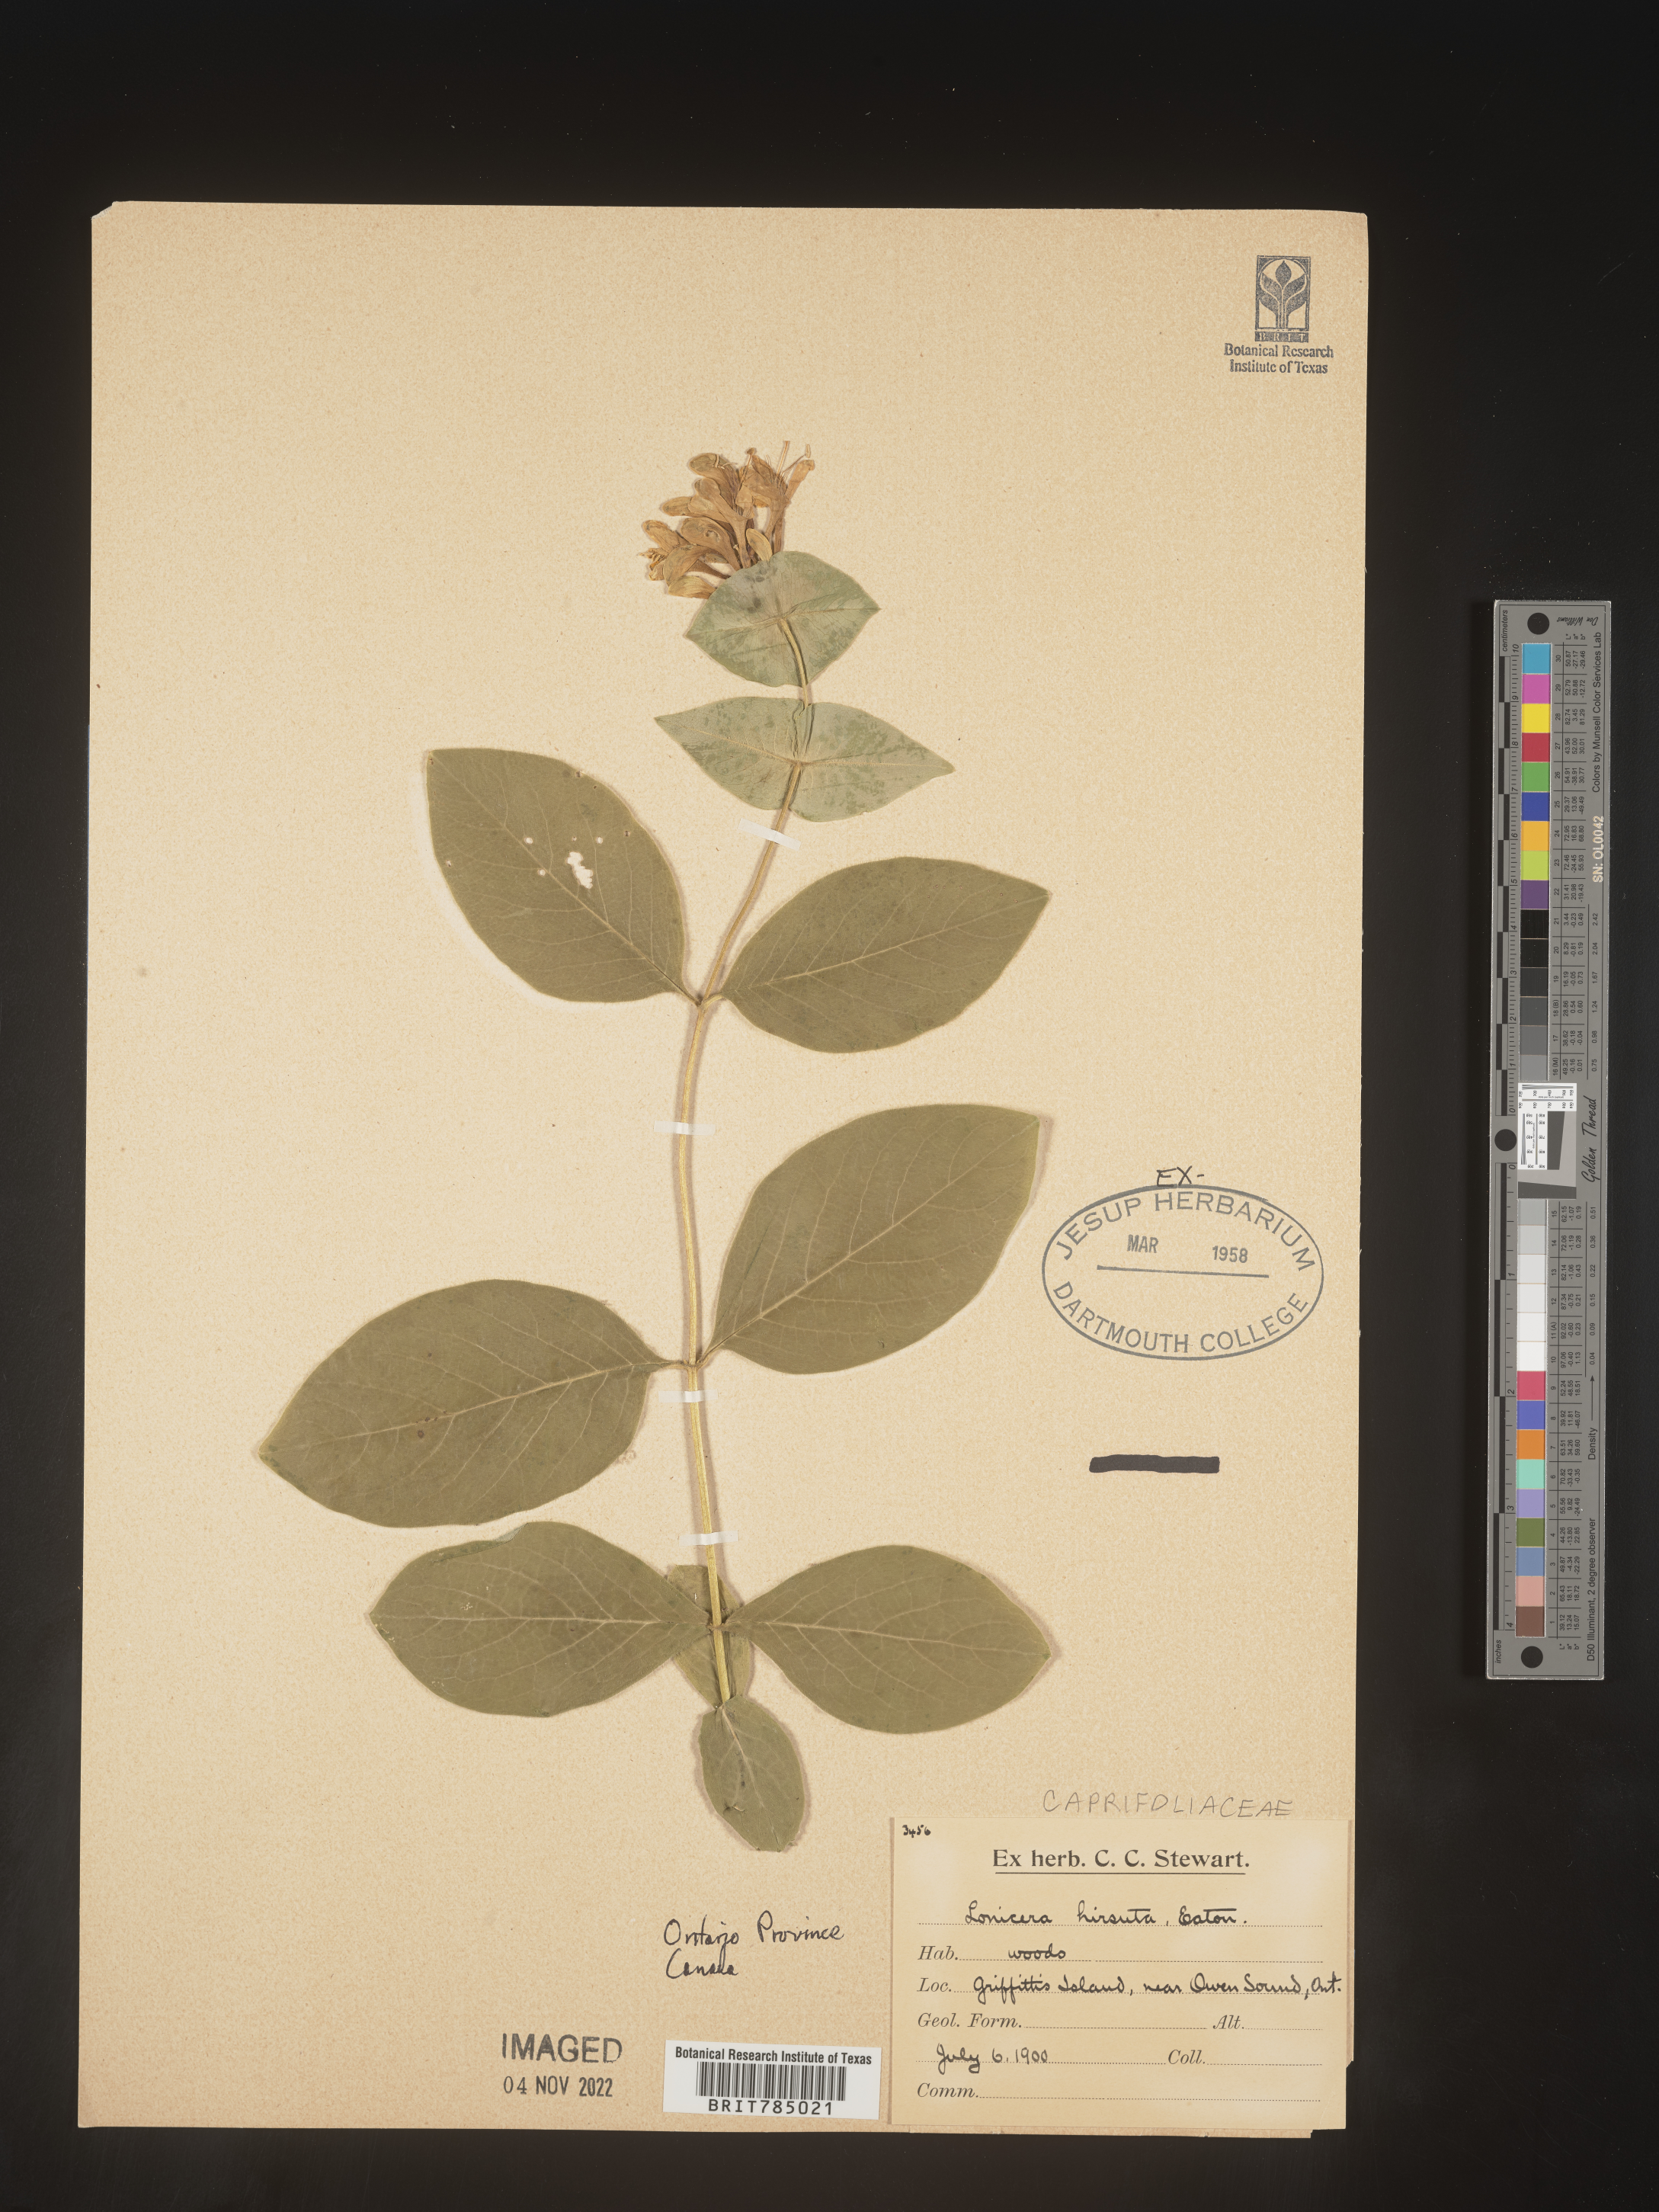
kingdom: Plantae
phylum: Tracheophyta
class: Magnoliopsida
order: Dipsacales
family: Caprifoliaceae
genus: Lonicera
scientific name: Lonicera
